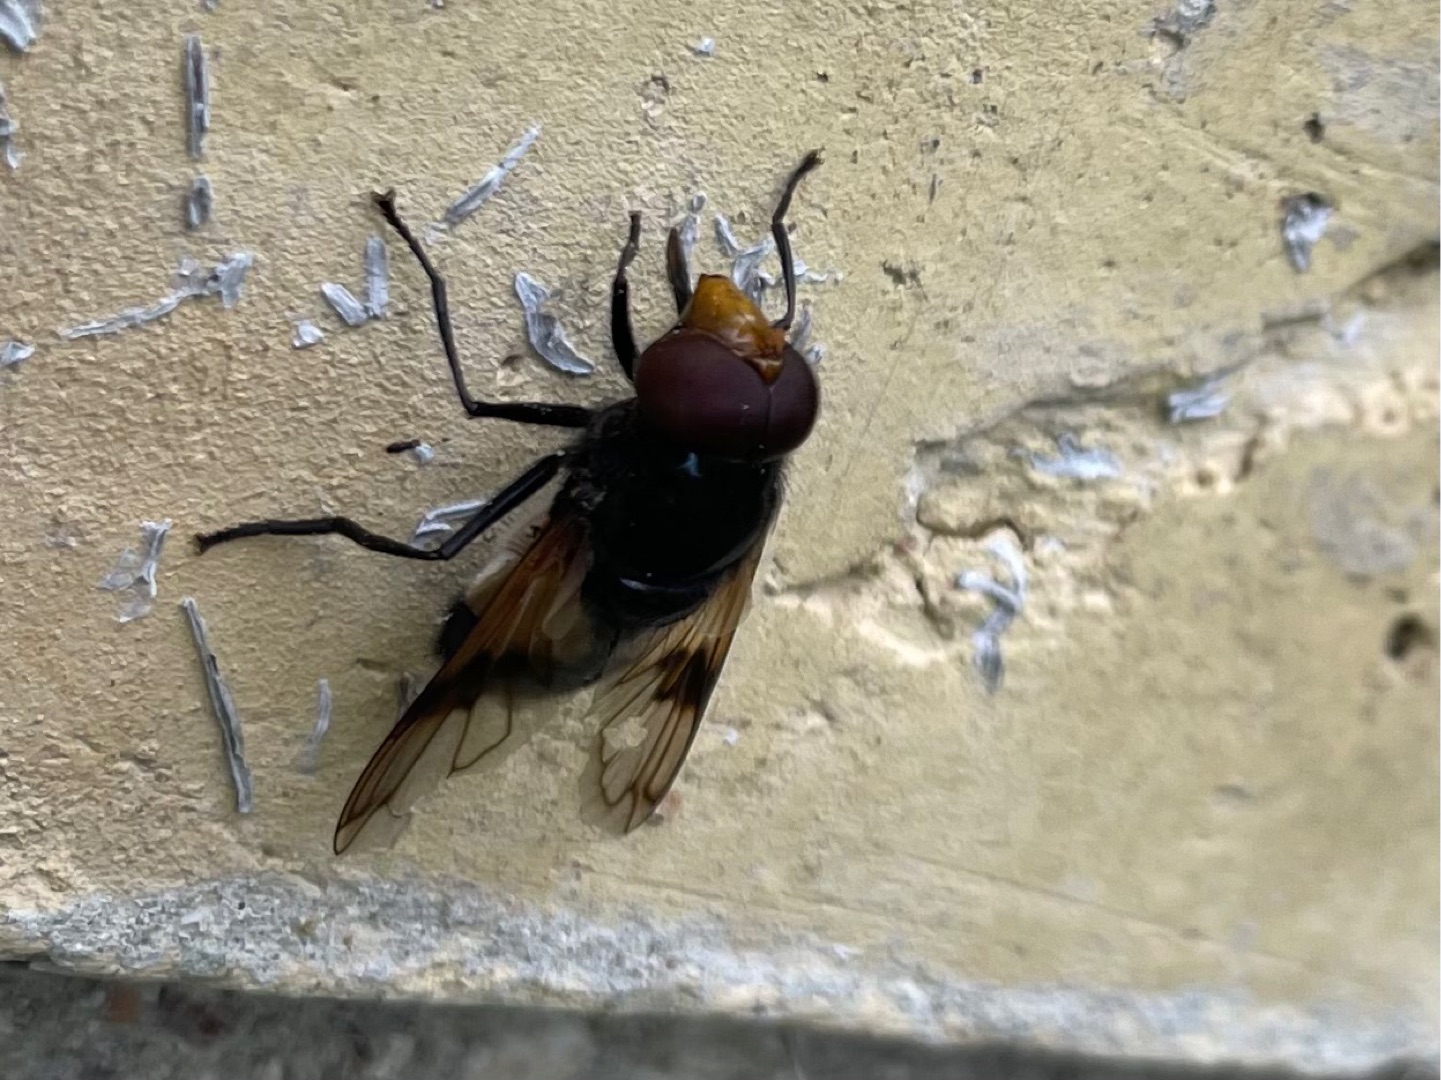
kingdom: Animalia
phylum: Arthropoda
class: Insecta
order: Diptera
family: Syrphidae
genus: Volucella
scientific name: Volucella pellucens
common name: Hvidbåndet humlesvirreflue
